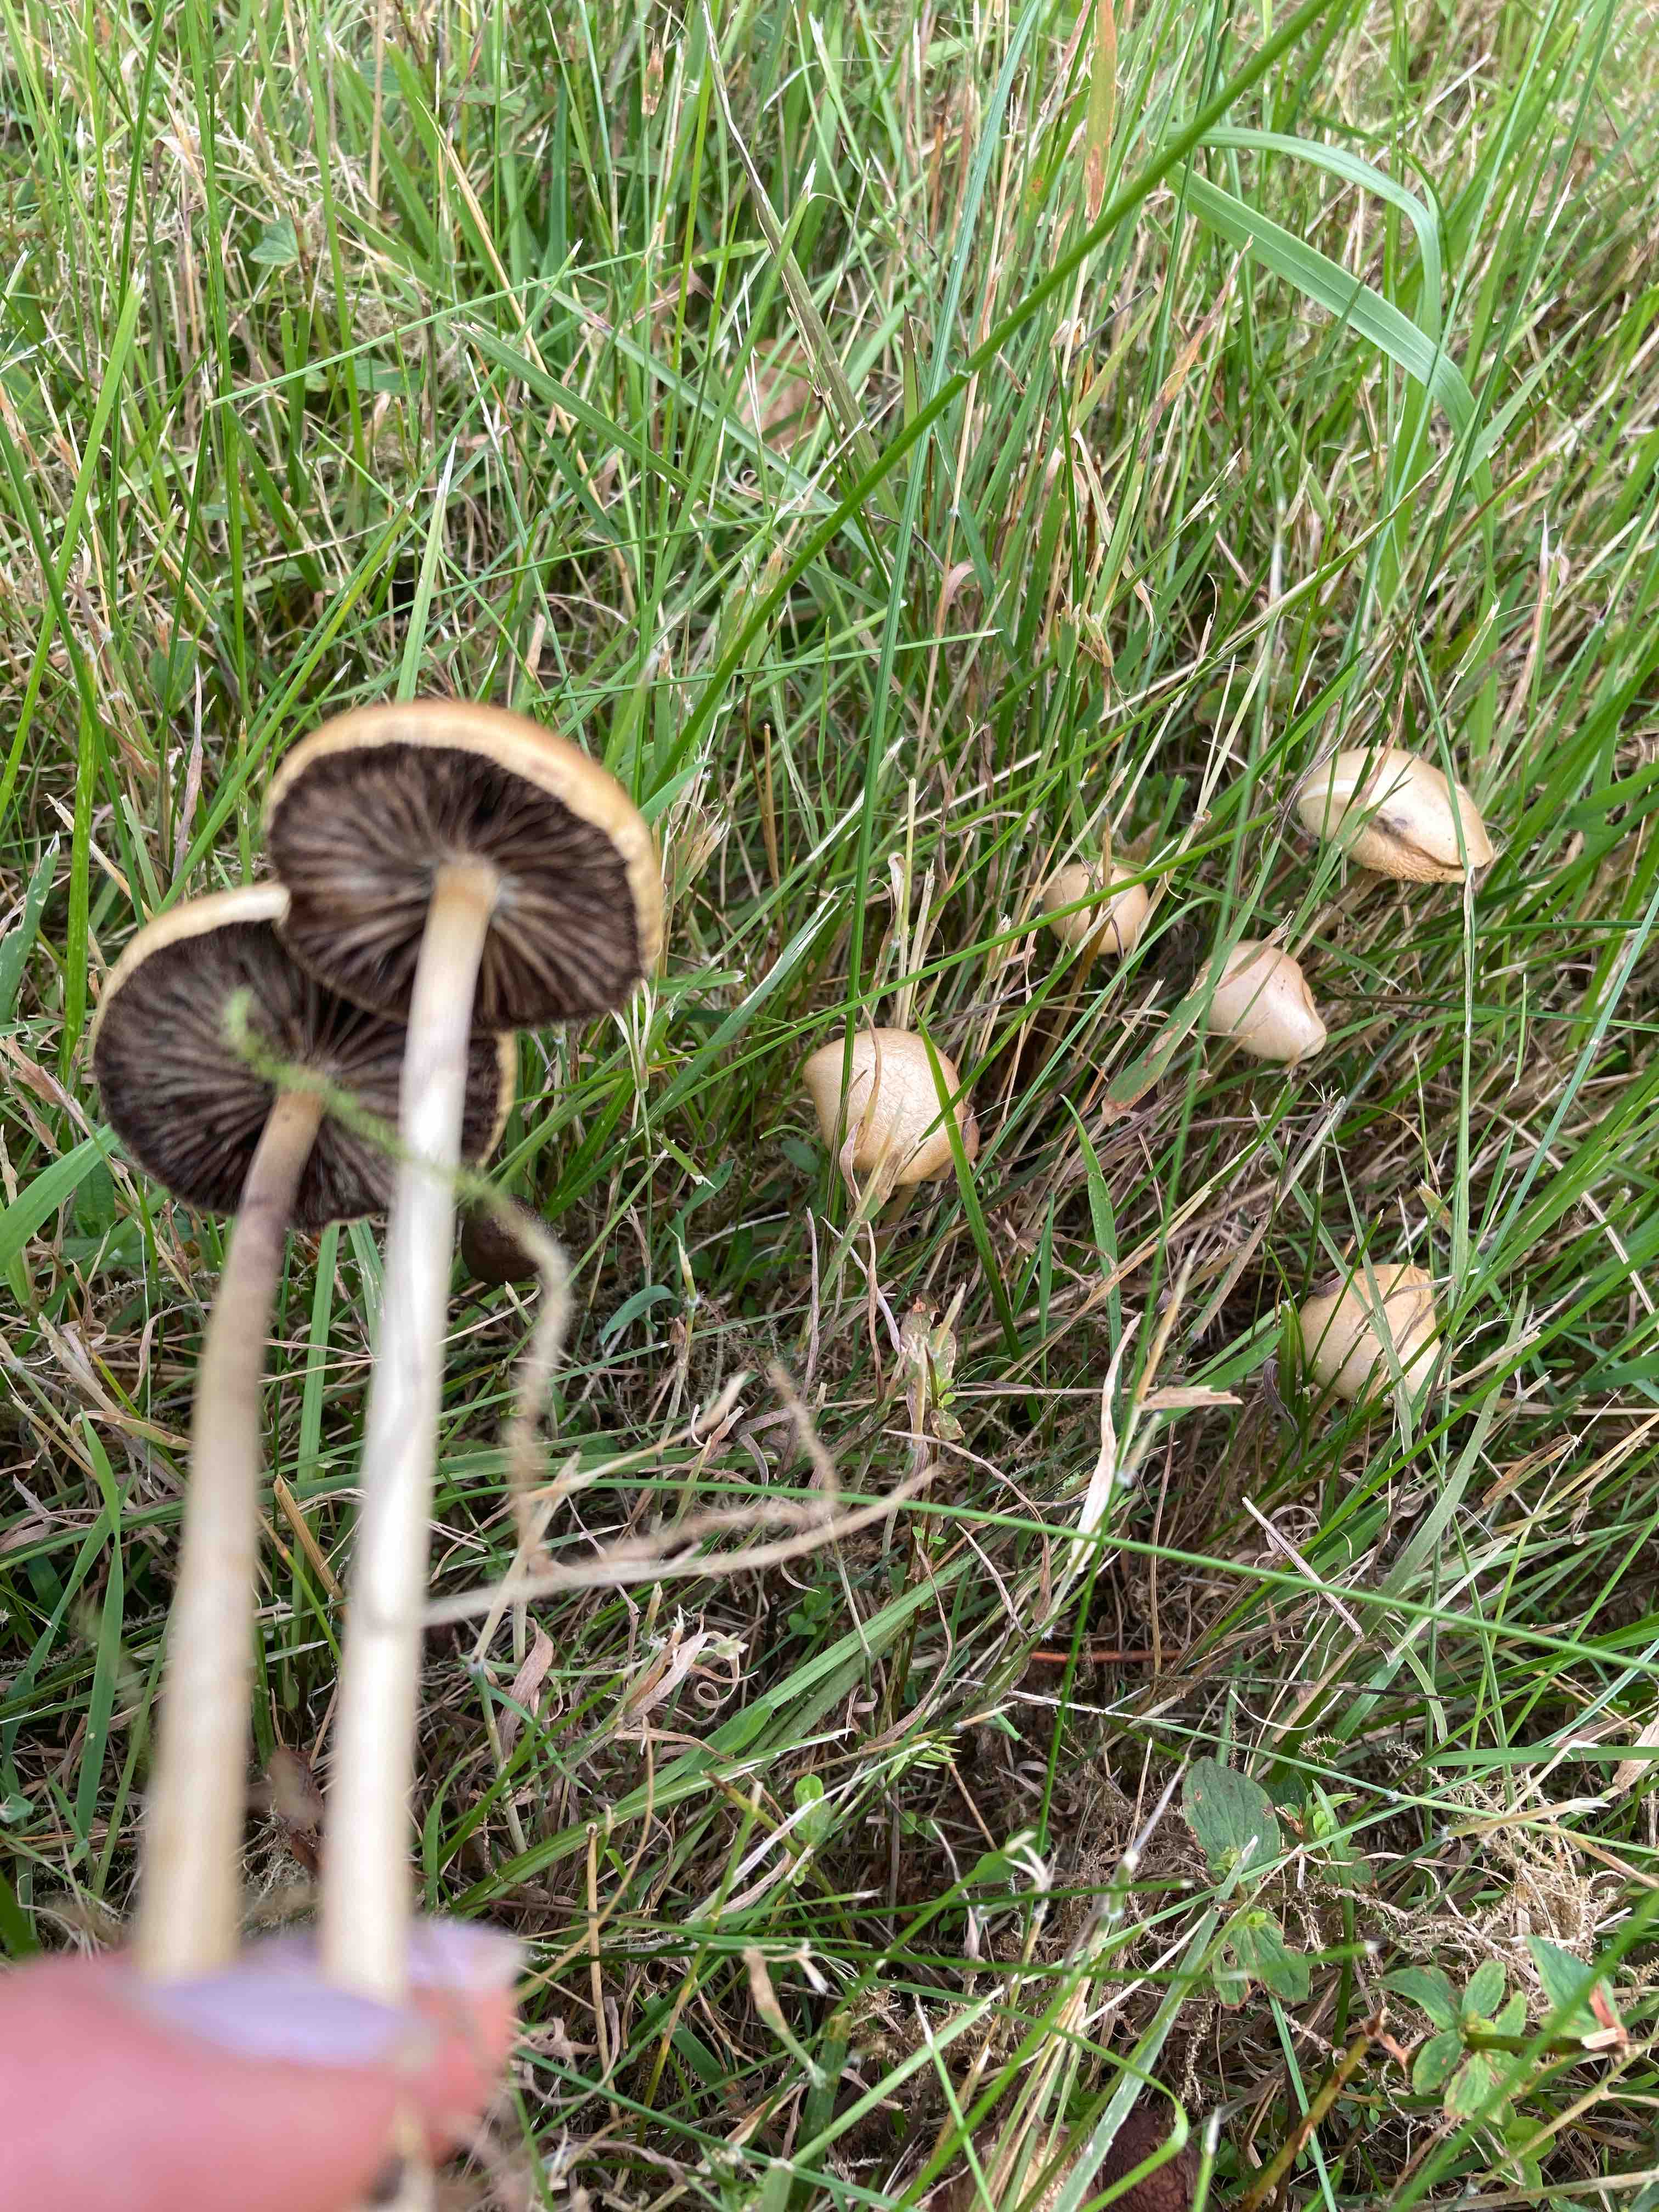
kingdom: Fungi
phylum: Basidiomycota
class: Agaricomycetes
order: Agaricales
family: Strophariaceae
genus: Protostropharia
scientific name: Protostropharia semiglobata
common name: halvkugleformet bredblad
